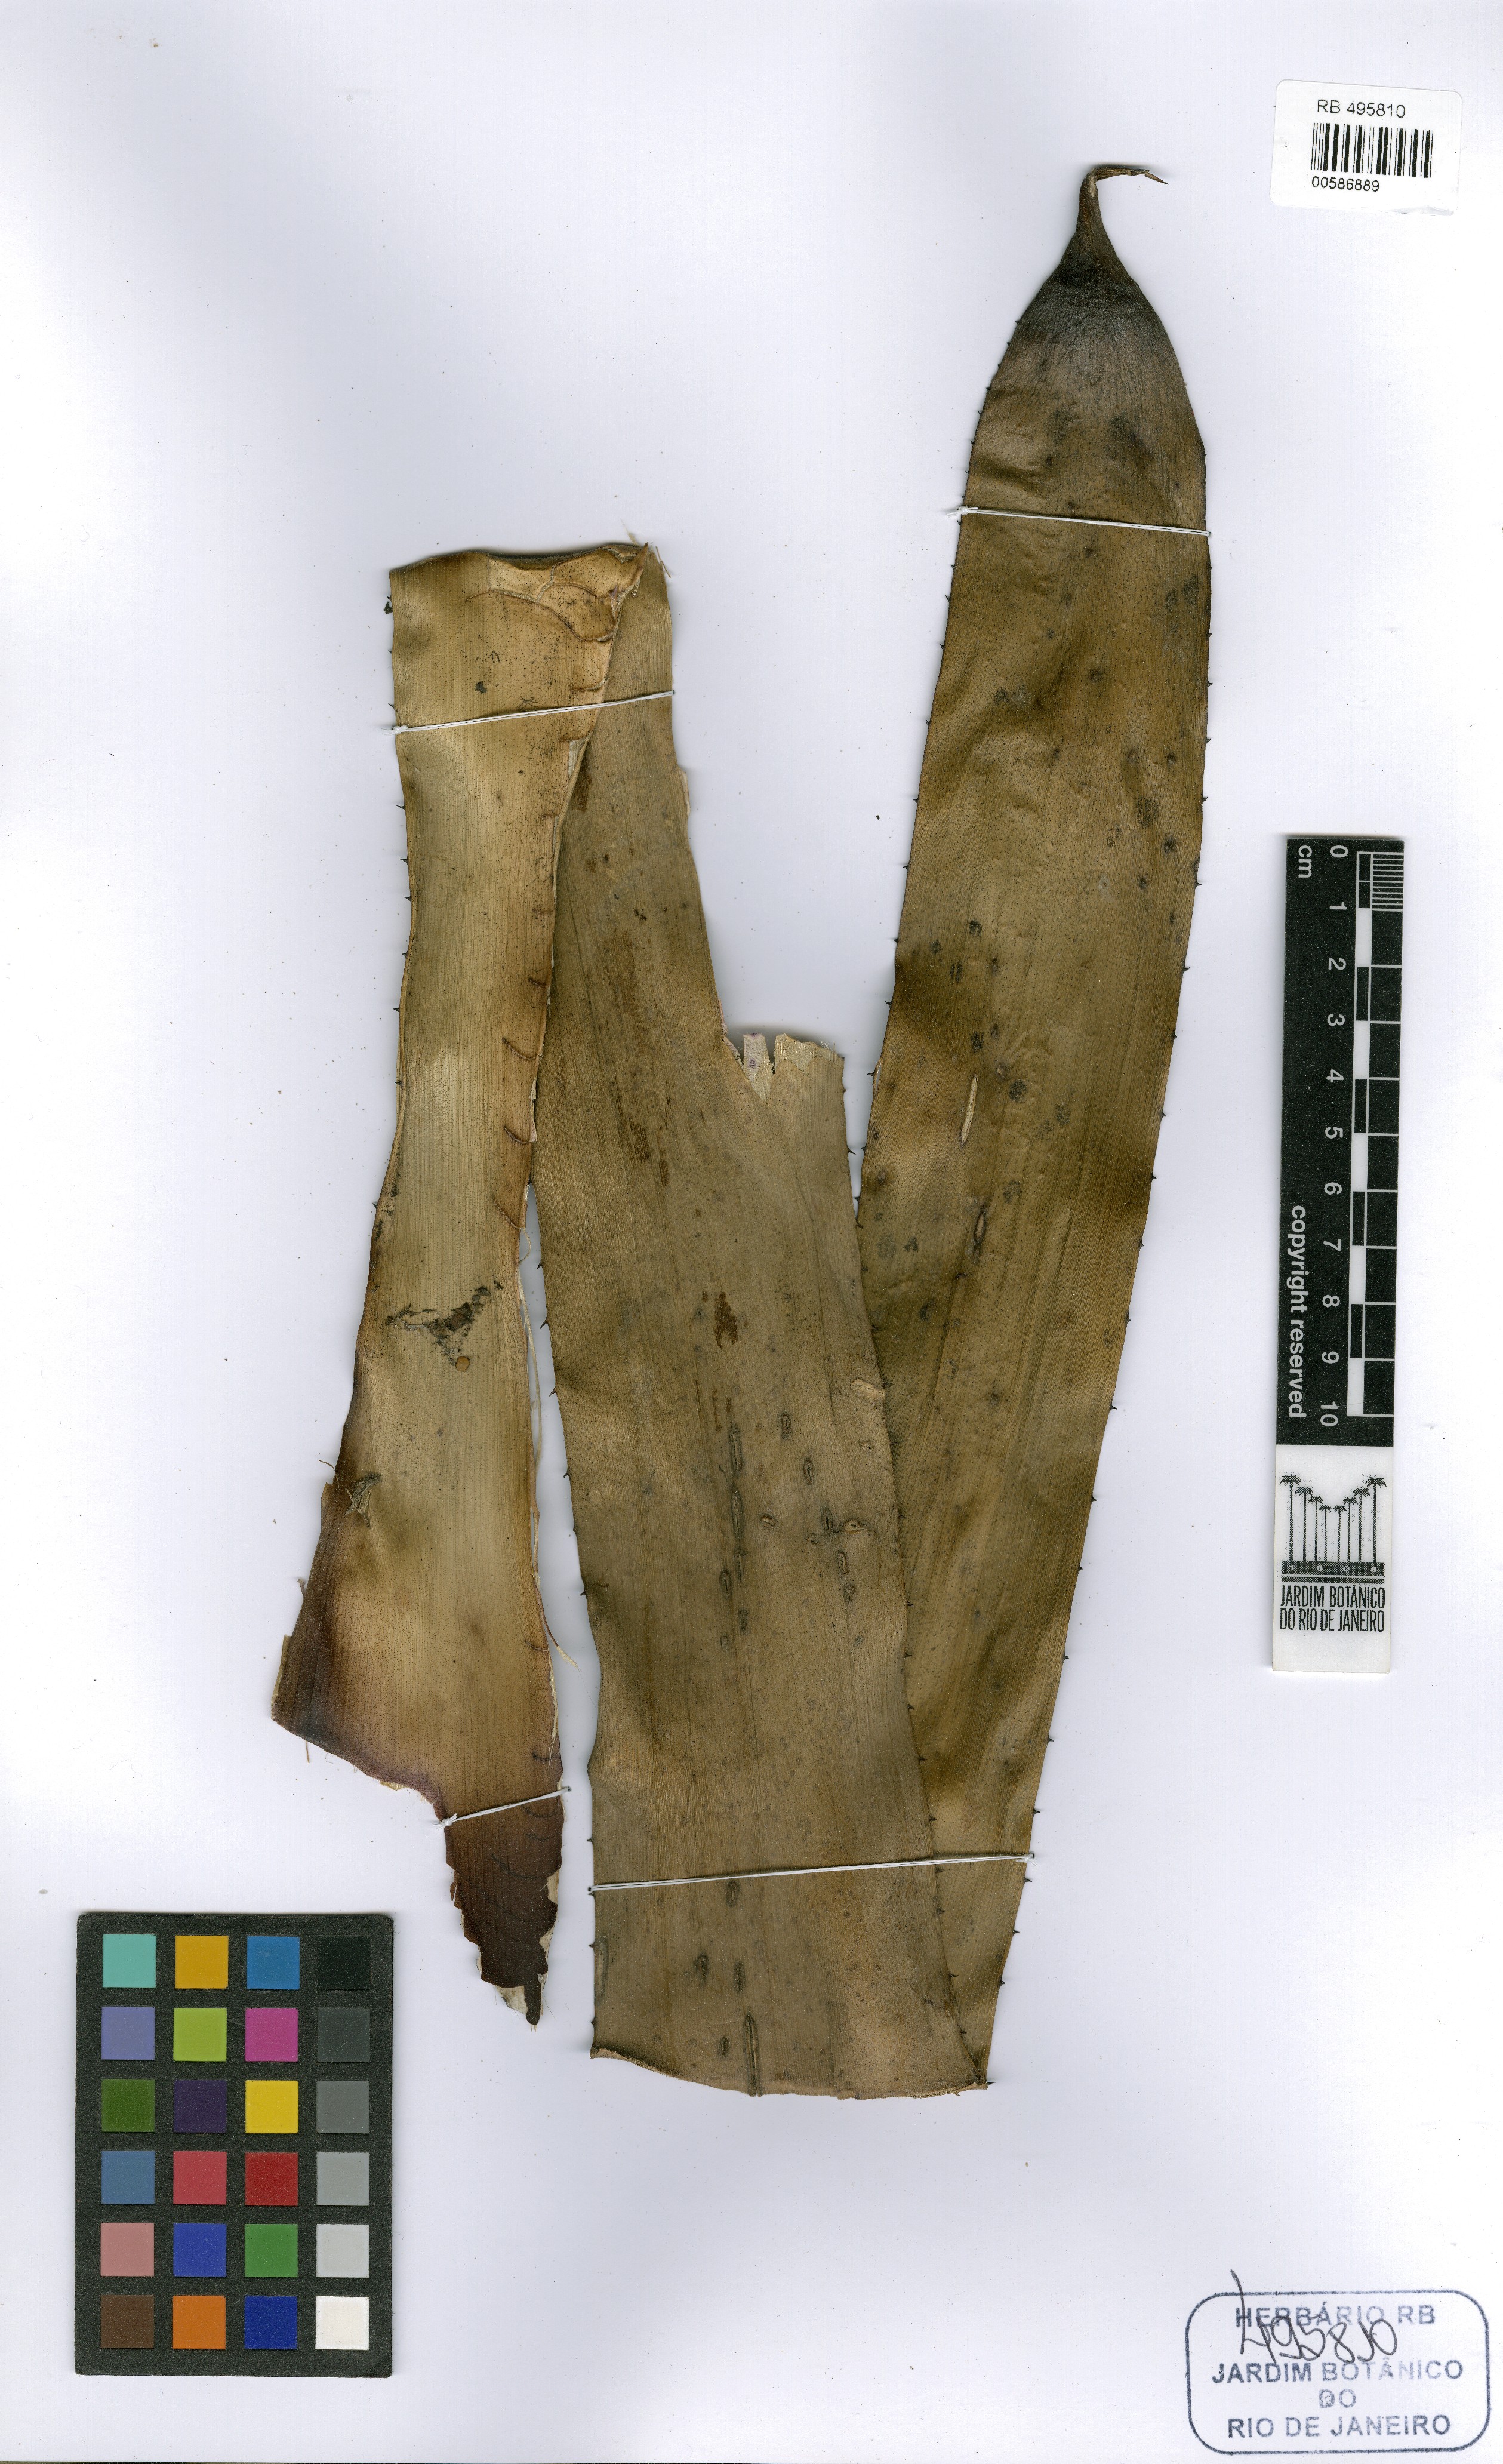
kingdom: Plantae
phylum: Tracheophyta
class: Liliopsida
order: Poales
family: Bromeliaceae
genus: Hohenbergia
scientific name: Hohenbergia aechmeoides
